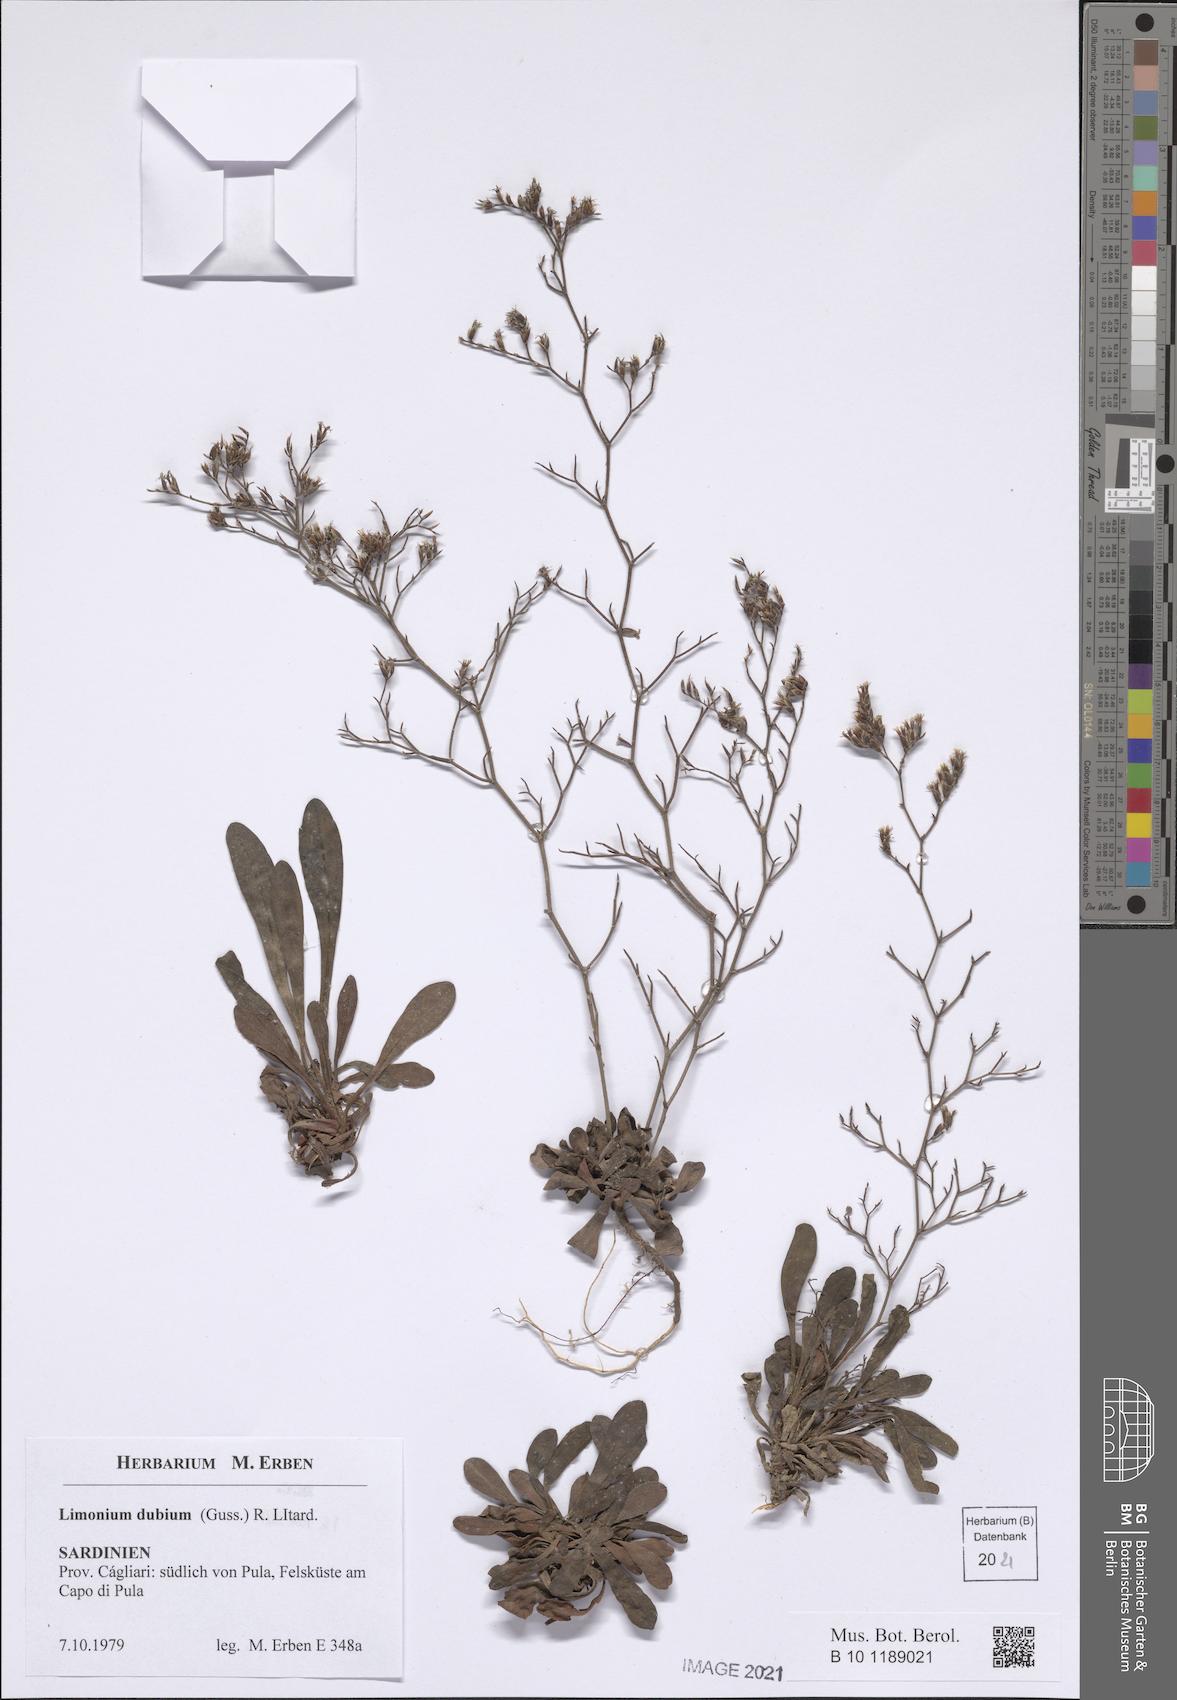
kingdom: Plantae
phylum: Tracheophyta
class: Magnoliopsida
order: Caryophyllales
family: Plumbaginaceae
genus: Limonium
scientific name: Limonium dubium
